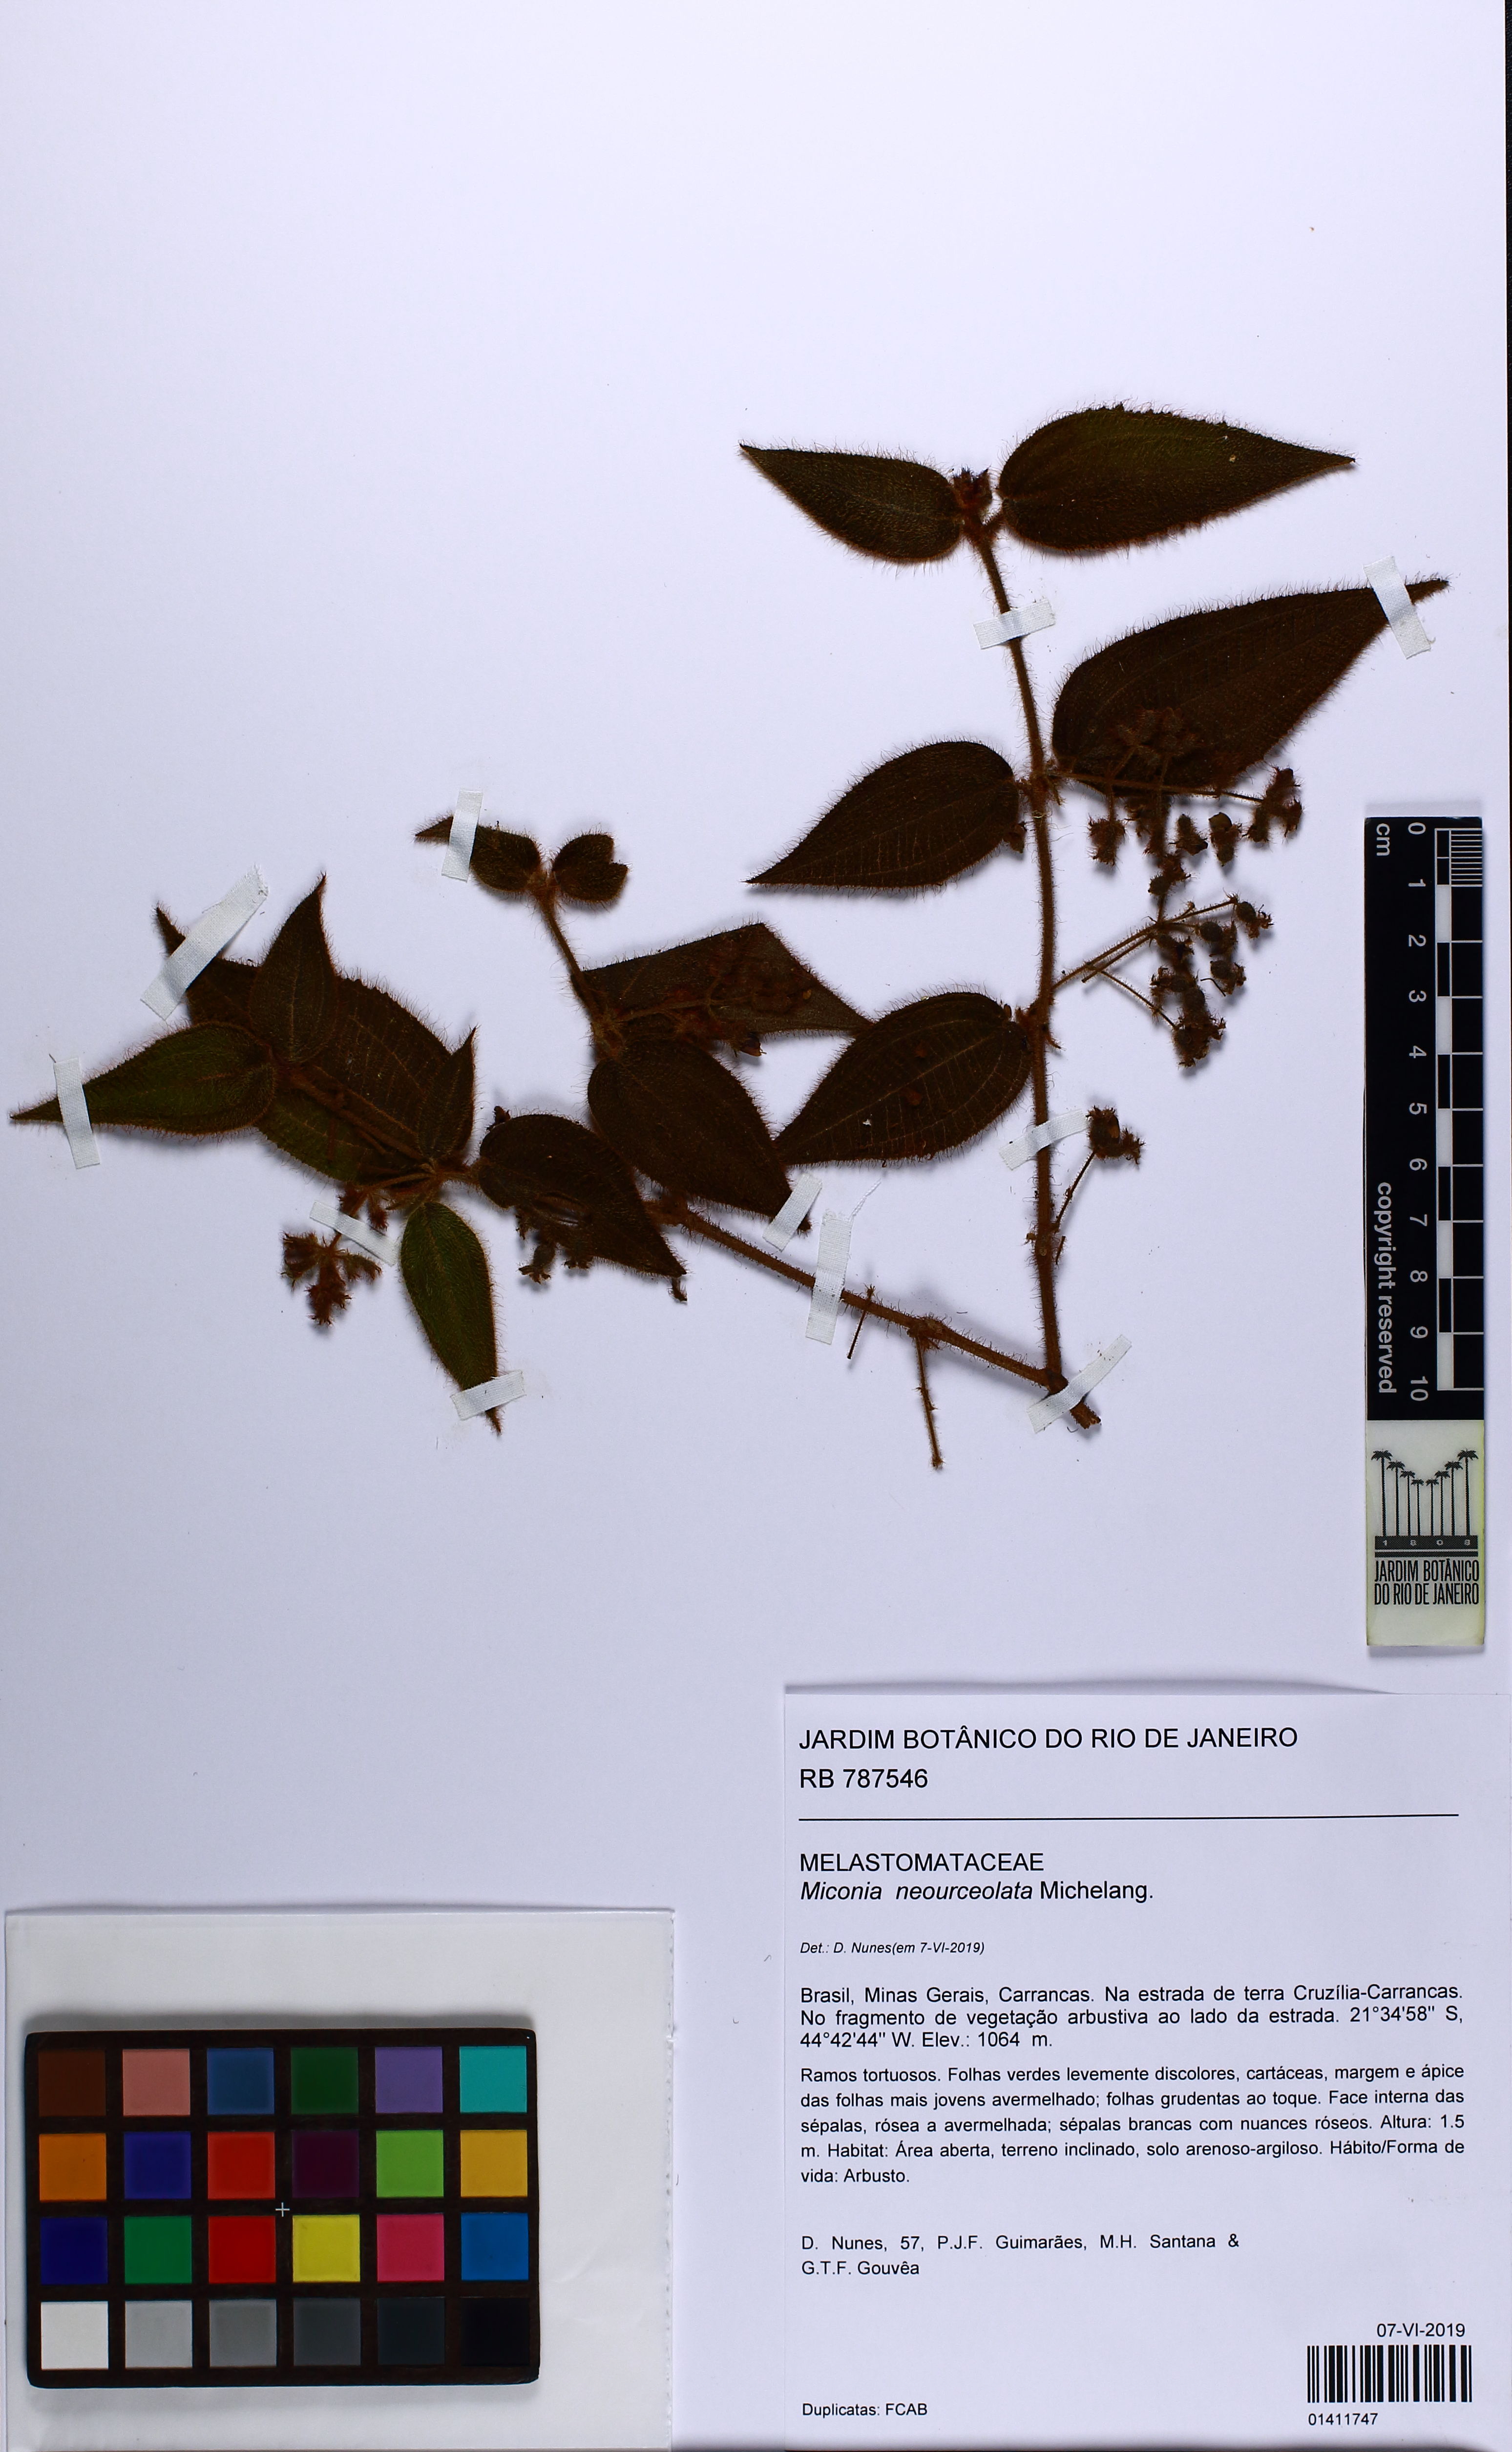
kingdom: Plantae
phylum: Tracheophyta
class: Magnoliopsida
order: Myrtales
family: Melastomataceae
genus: Miconia
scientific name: Miconia neourceolata
